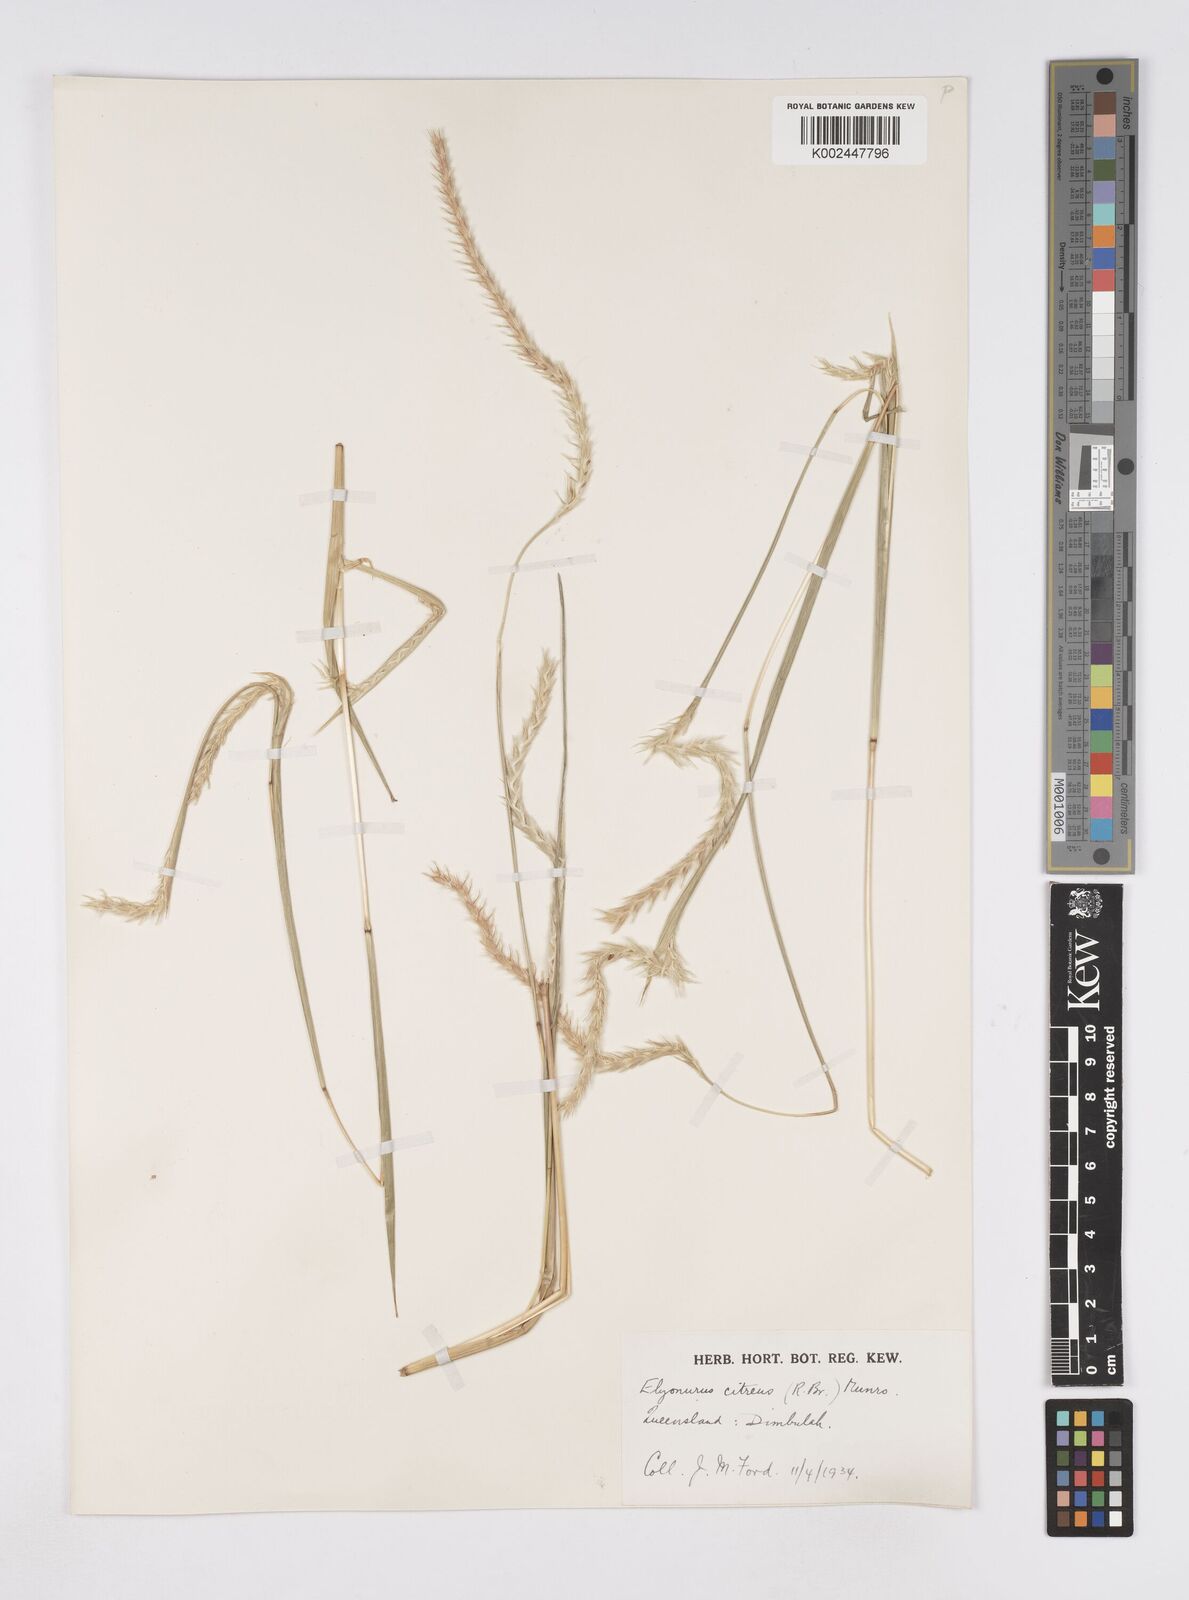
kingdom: Plantae
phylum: Tracheophyta
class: Liliopsida
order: Poales
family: Poaceae
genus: Elionurus
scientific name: Elionurus citreus
